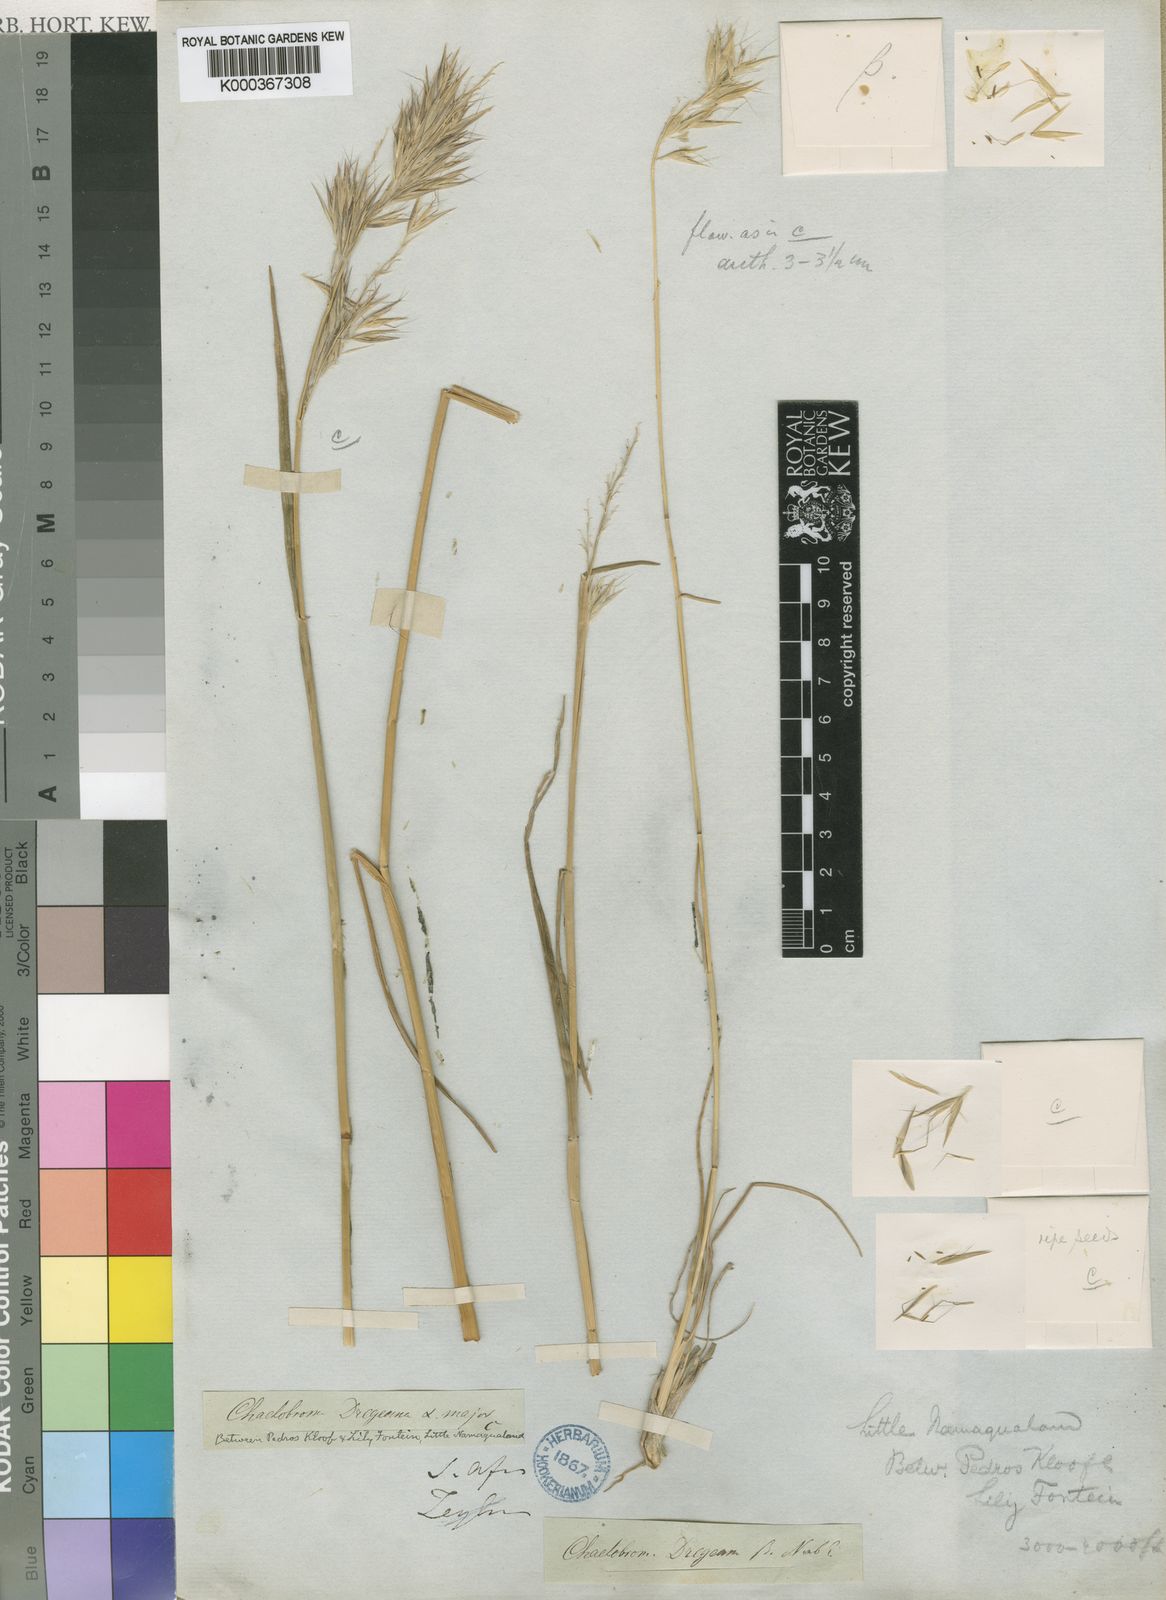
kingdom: Plantae
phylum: Tracheophyta
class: Liliopsida
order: Poales
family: Poaceae
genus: Chaetobromus
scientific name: Chaetobromus involucratus
